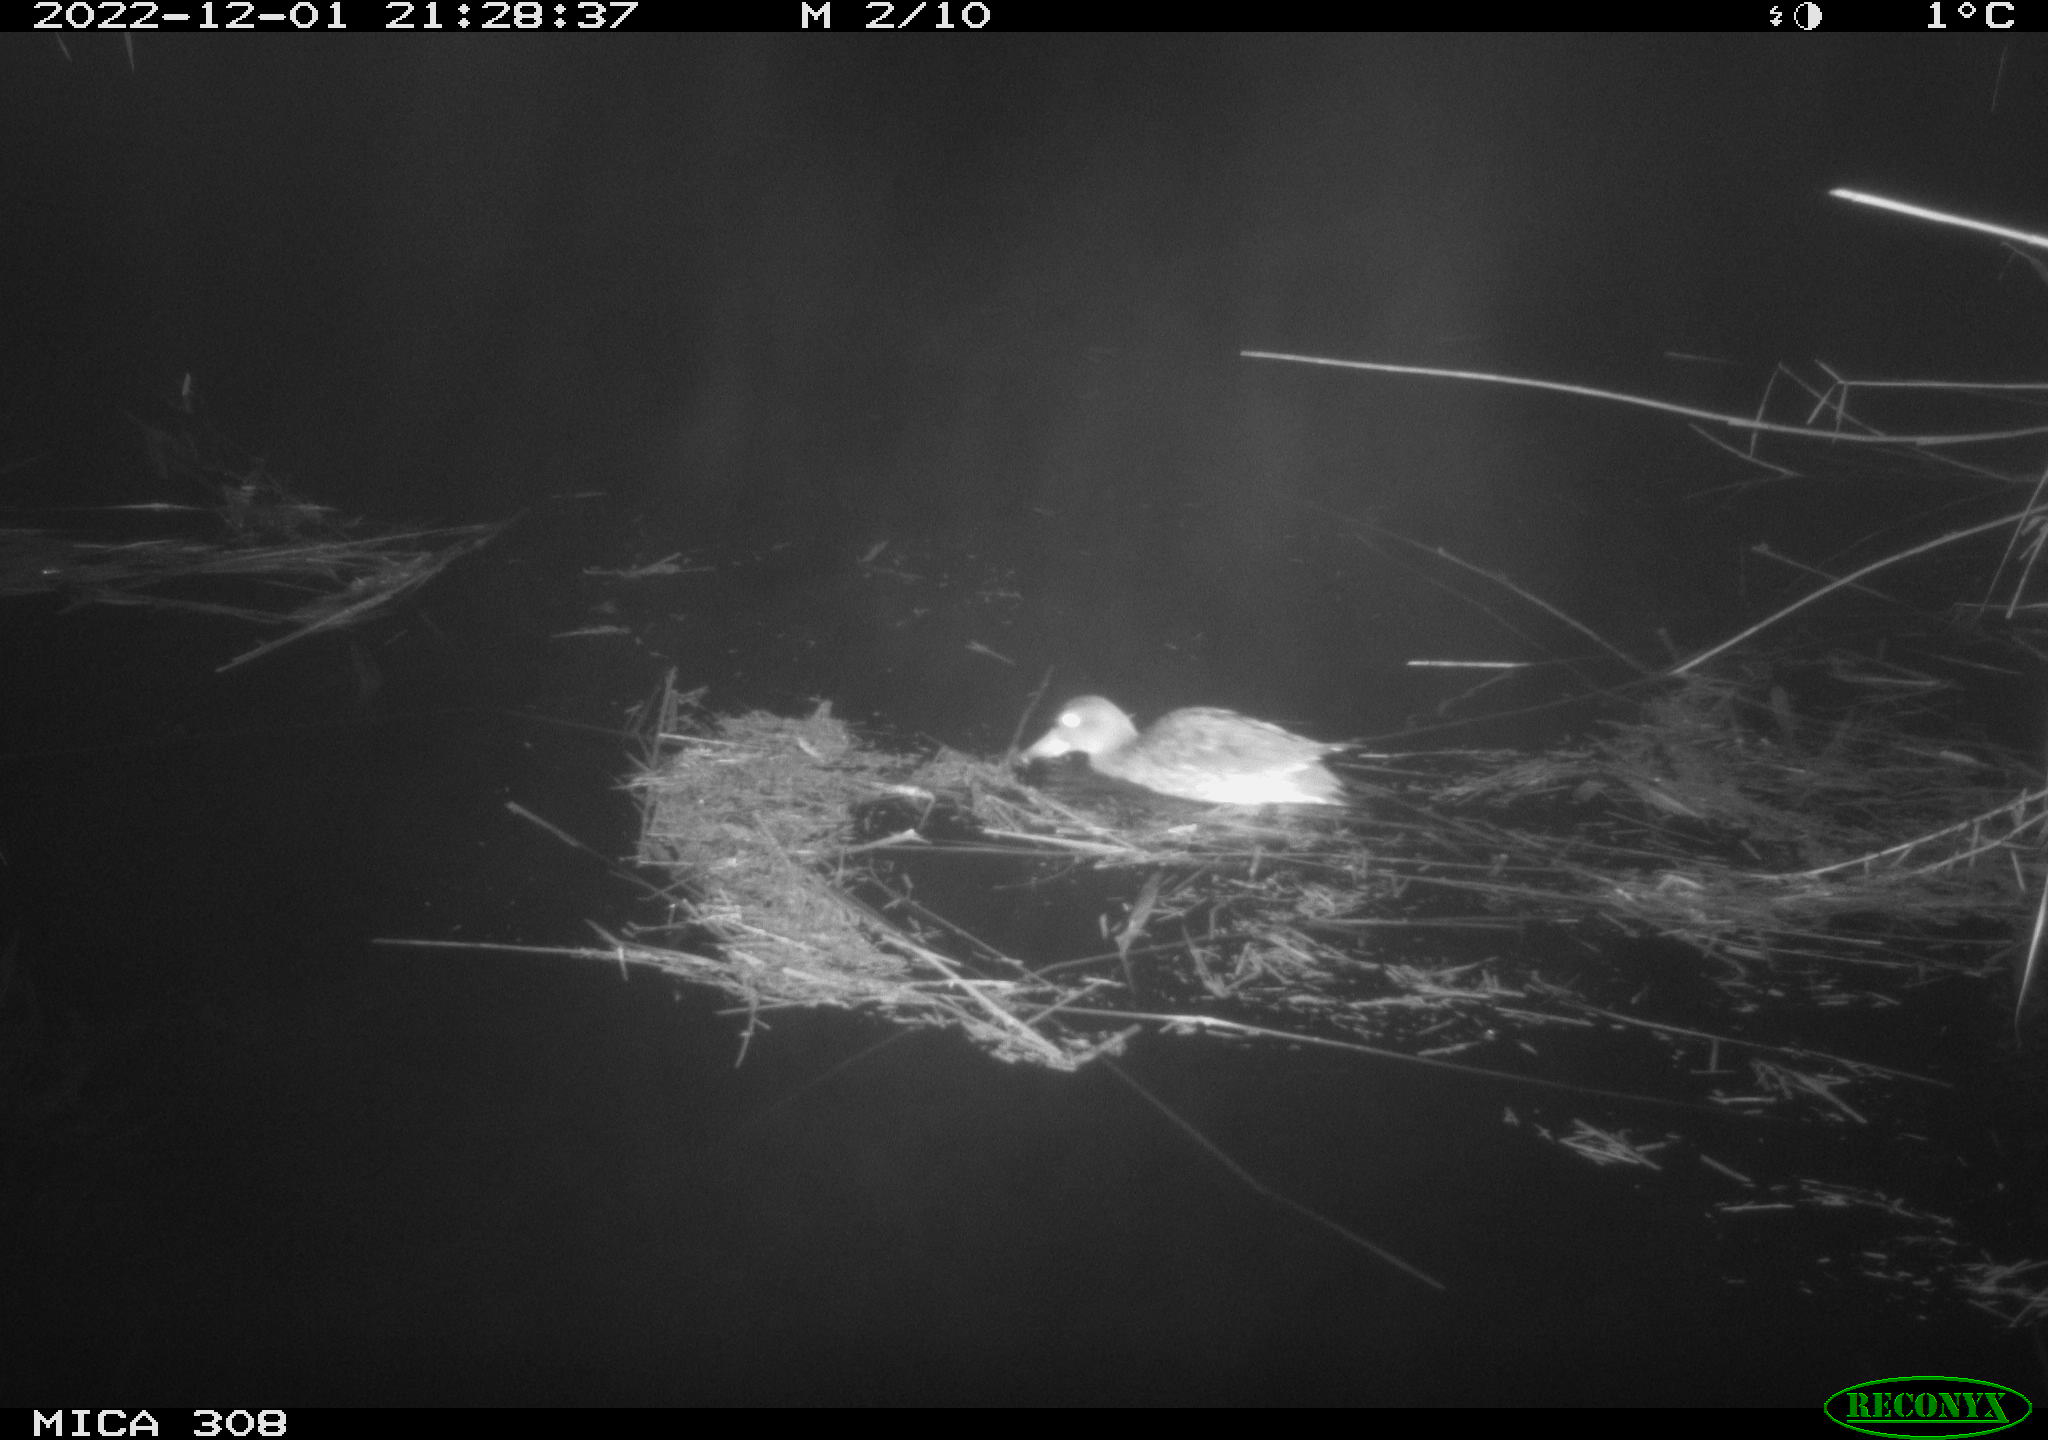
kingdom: Animalia
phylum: Chordata
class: Aves
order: Anseriformes
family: Anatidae
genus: Anas
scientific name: Anas
